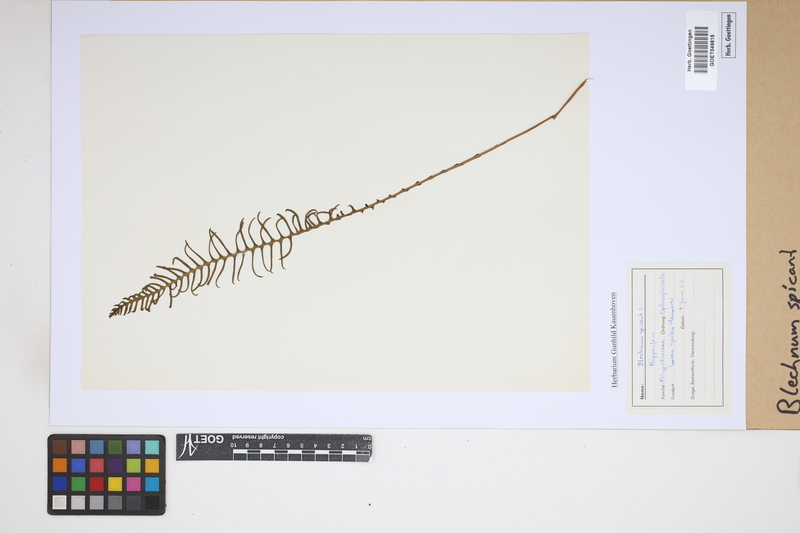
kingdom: Plantae
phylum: Tracheophyta
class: Polypodiopsida
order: Polypodiales
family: Blechnaceae
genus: Struthiopteris
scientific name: Struthiopteris spicant
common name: Deer fern
